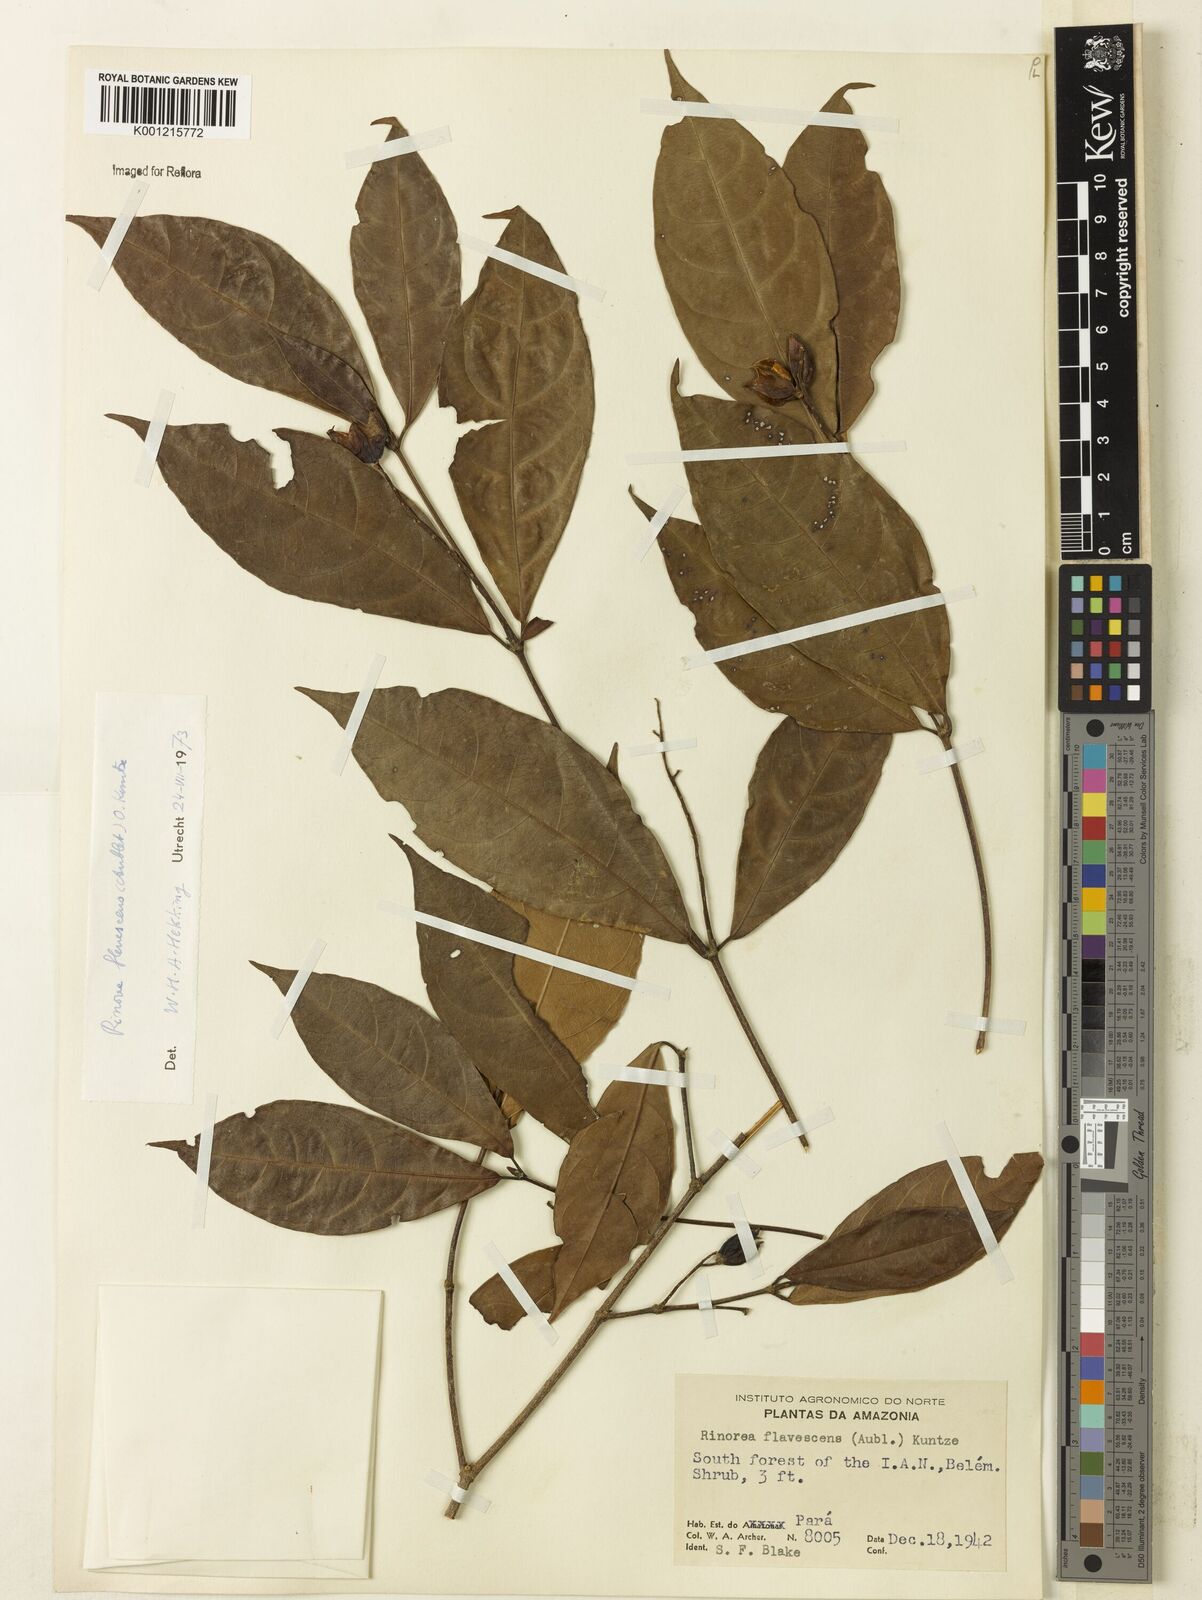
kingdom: Plantae
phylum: Tracheophyta
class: Magnoliopsida
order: Malpighiales
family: Violaceae
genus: Rinorea
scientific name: Rinorea flavescens
